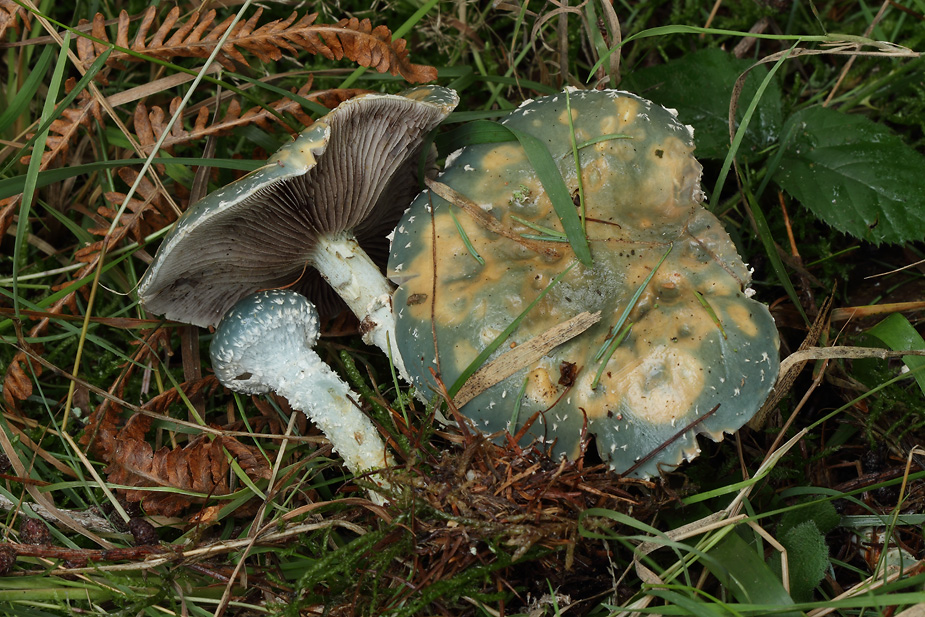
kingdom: Fungi
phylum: Basidiomycota
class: Agaricomycetes
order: Agaricales
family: Strophariaceae
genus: Stropharia
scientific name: Stropharia aeruginosa
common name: spanskgrøn bredblad
